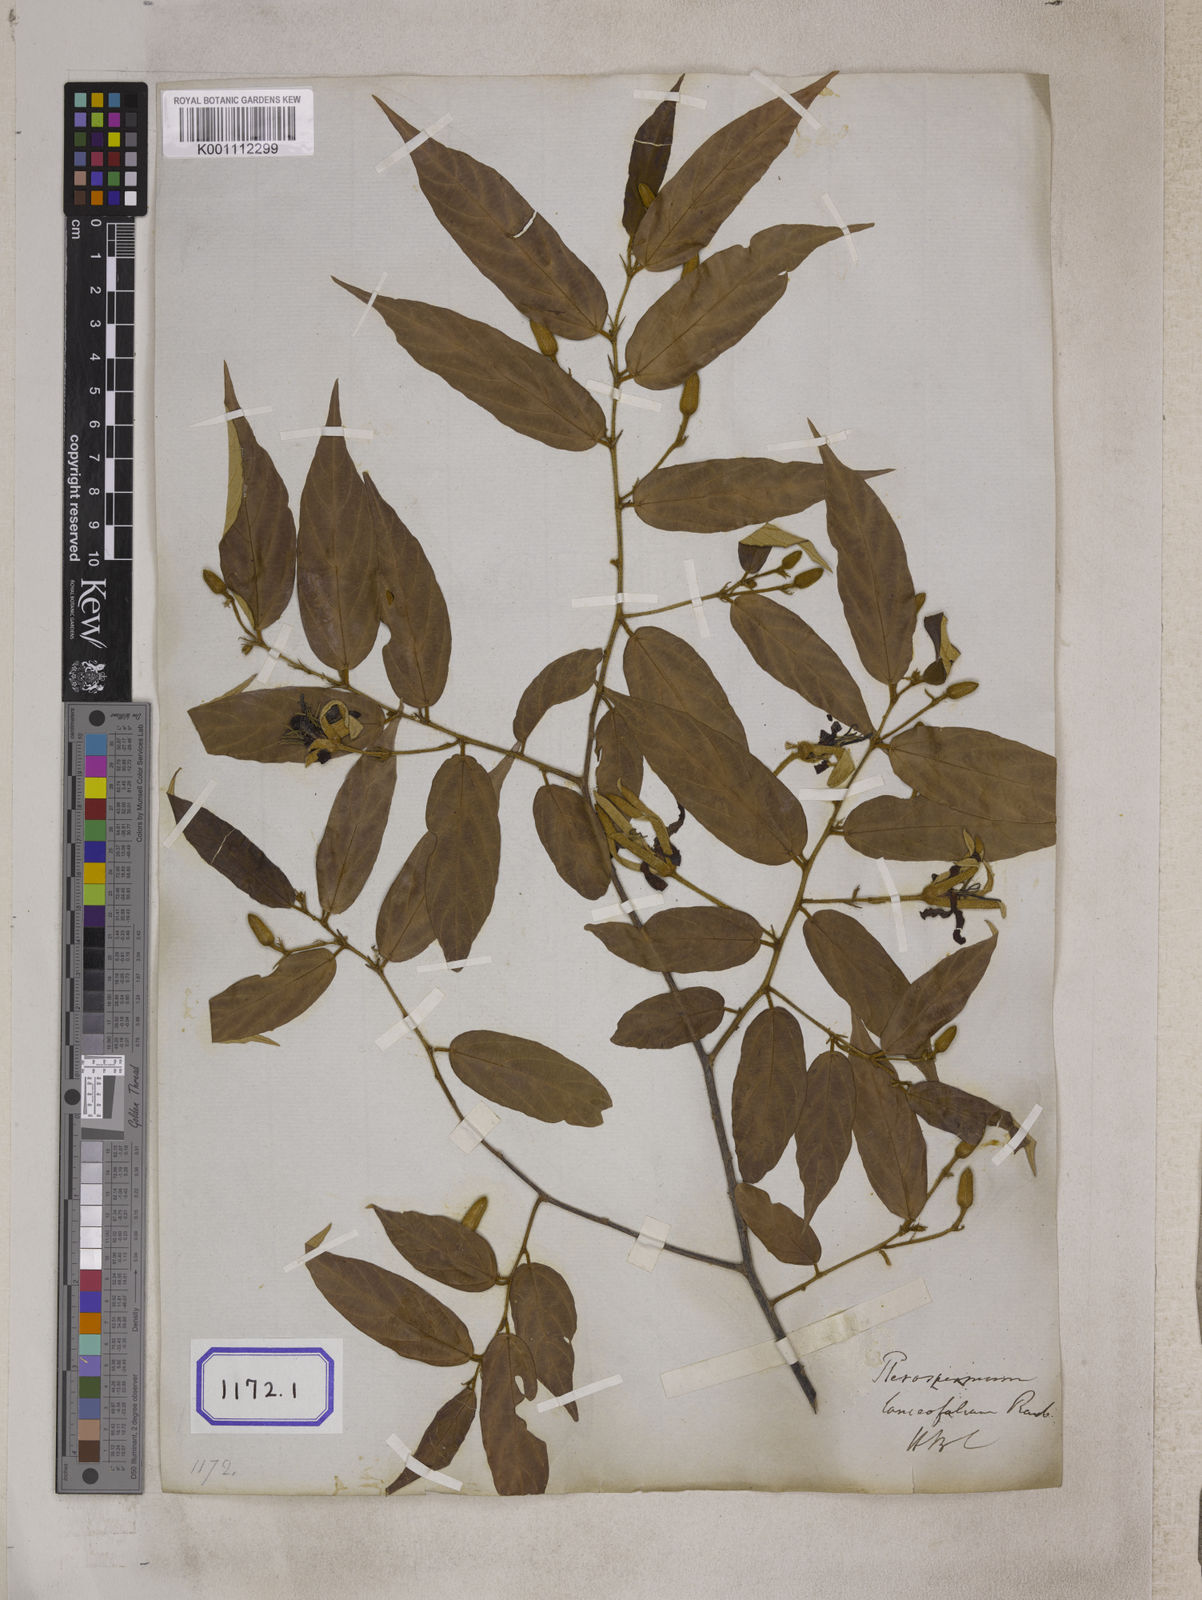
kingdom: Plantae
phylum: Tracheophyta
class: Magnoliopsida
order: Malvales
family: Malvaceae
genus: Pterospermum
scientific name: Pterospermum
